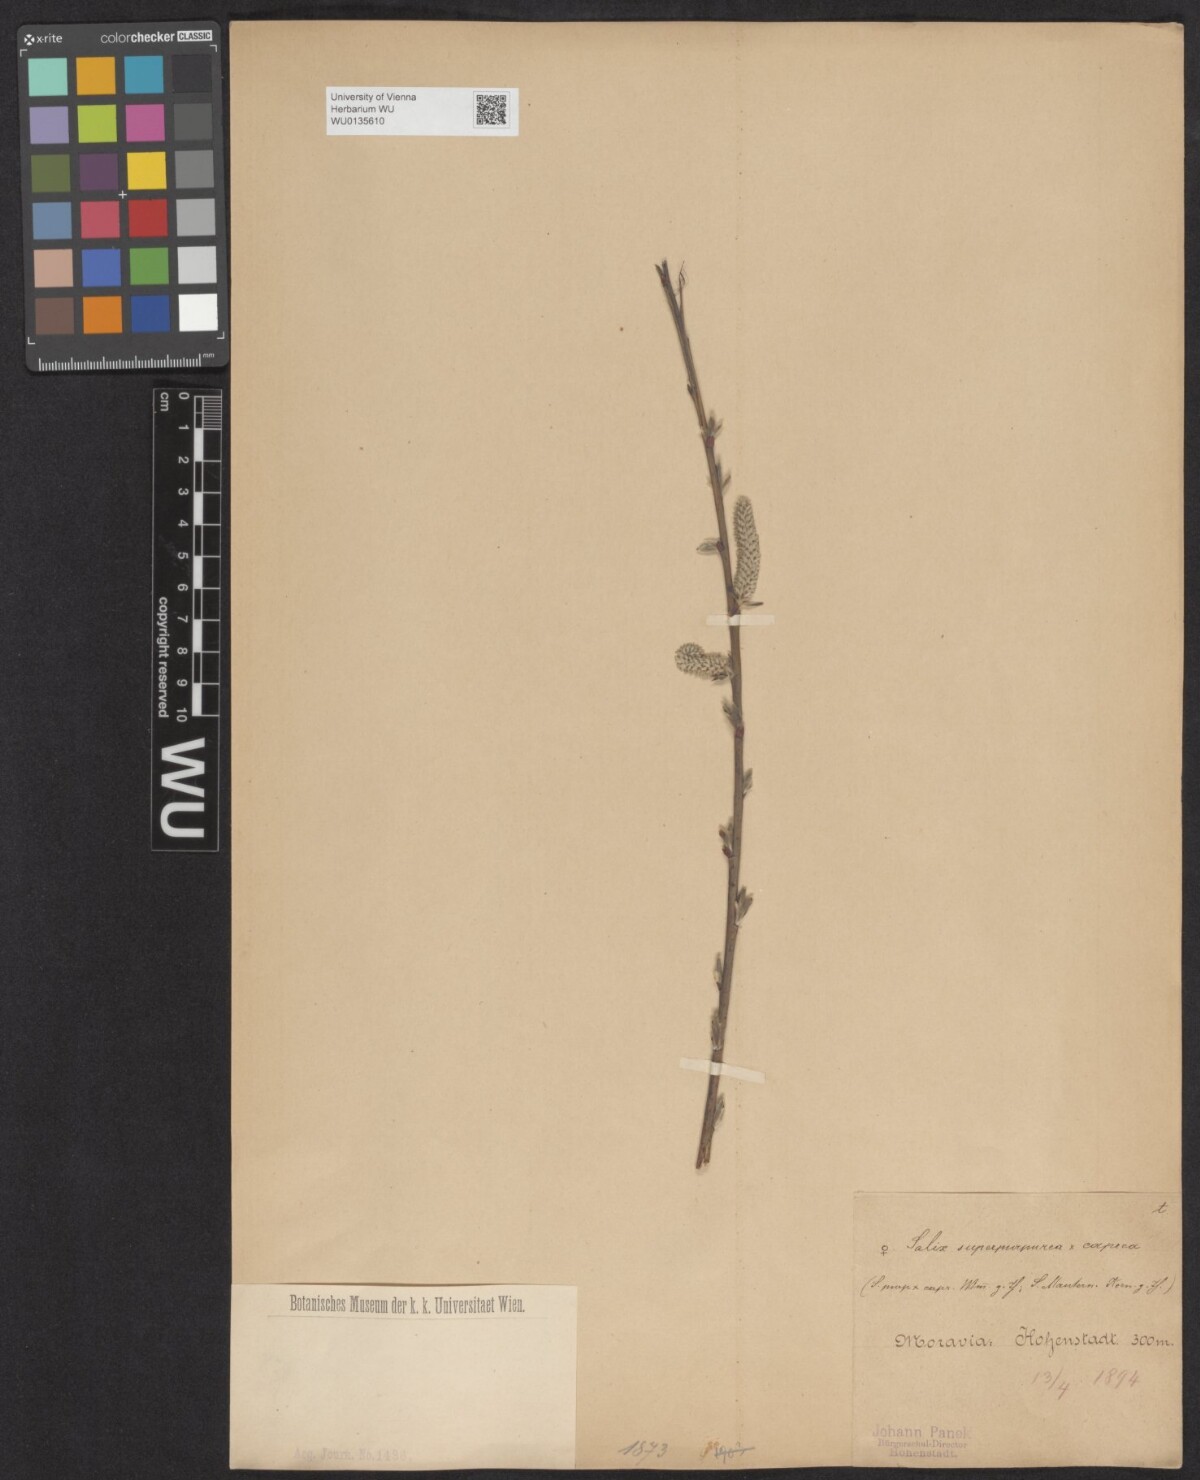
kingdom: Plantae
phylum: Tracheophyta
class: Magnoliopsida
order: Malpighiales
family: Salicaceae
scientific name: Salicaceae
